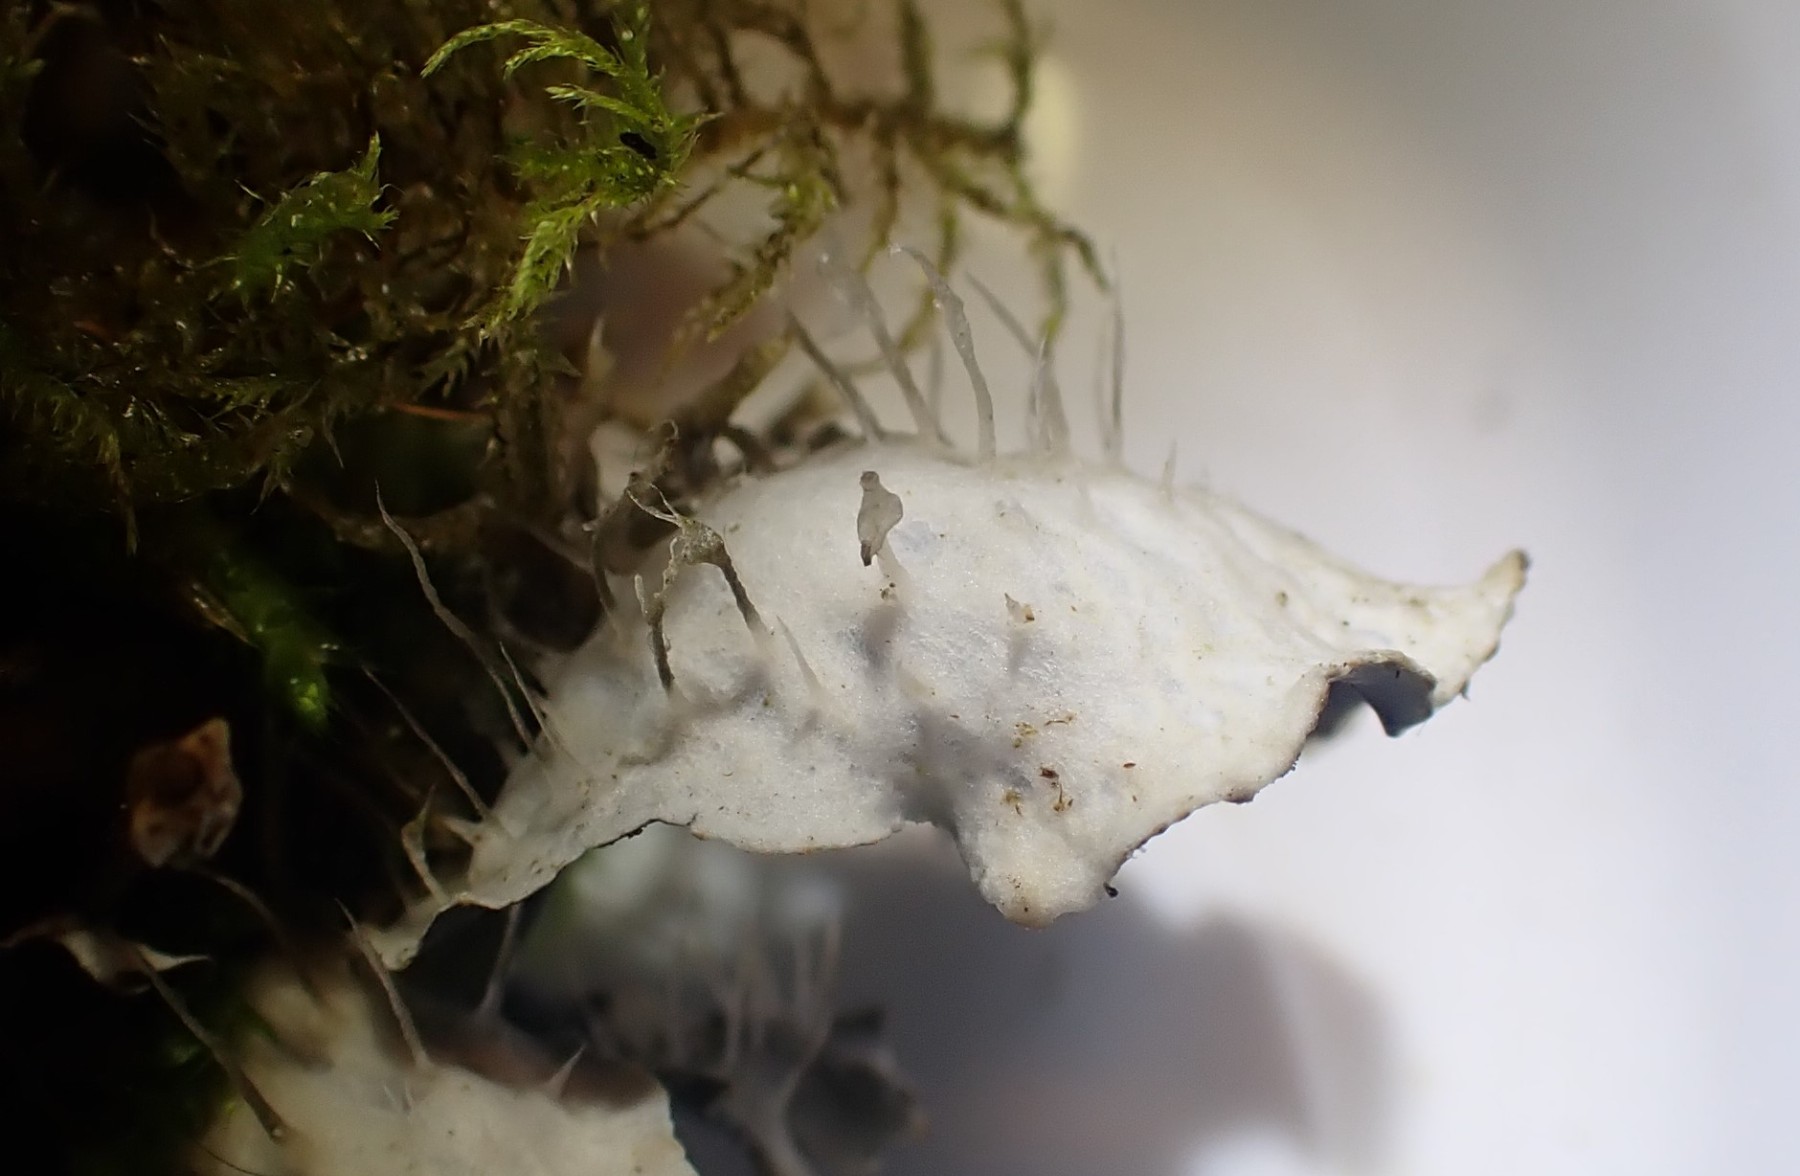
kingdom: Fungi
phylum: Ascomycota
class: Lecanoromycetes
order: Peltigerales
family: Peltigeraceae
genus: Peltigera
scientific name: Peltigera hymenina
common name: hinde-skjoldlav
